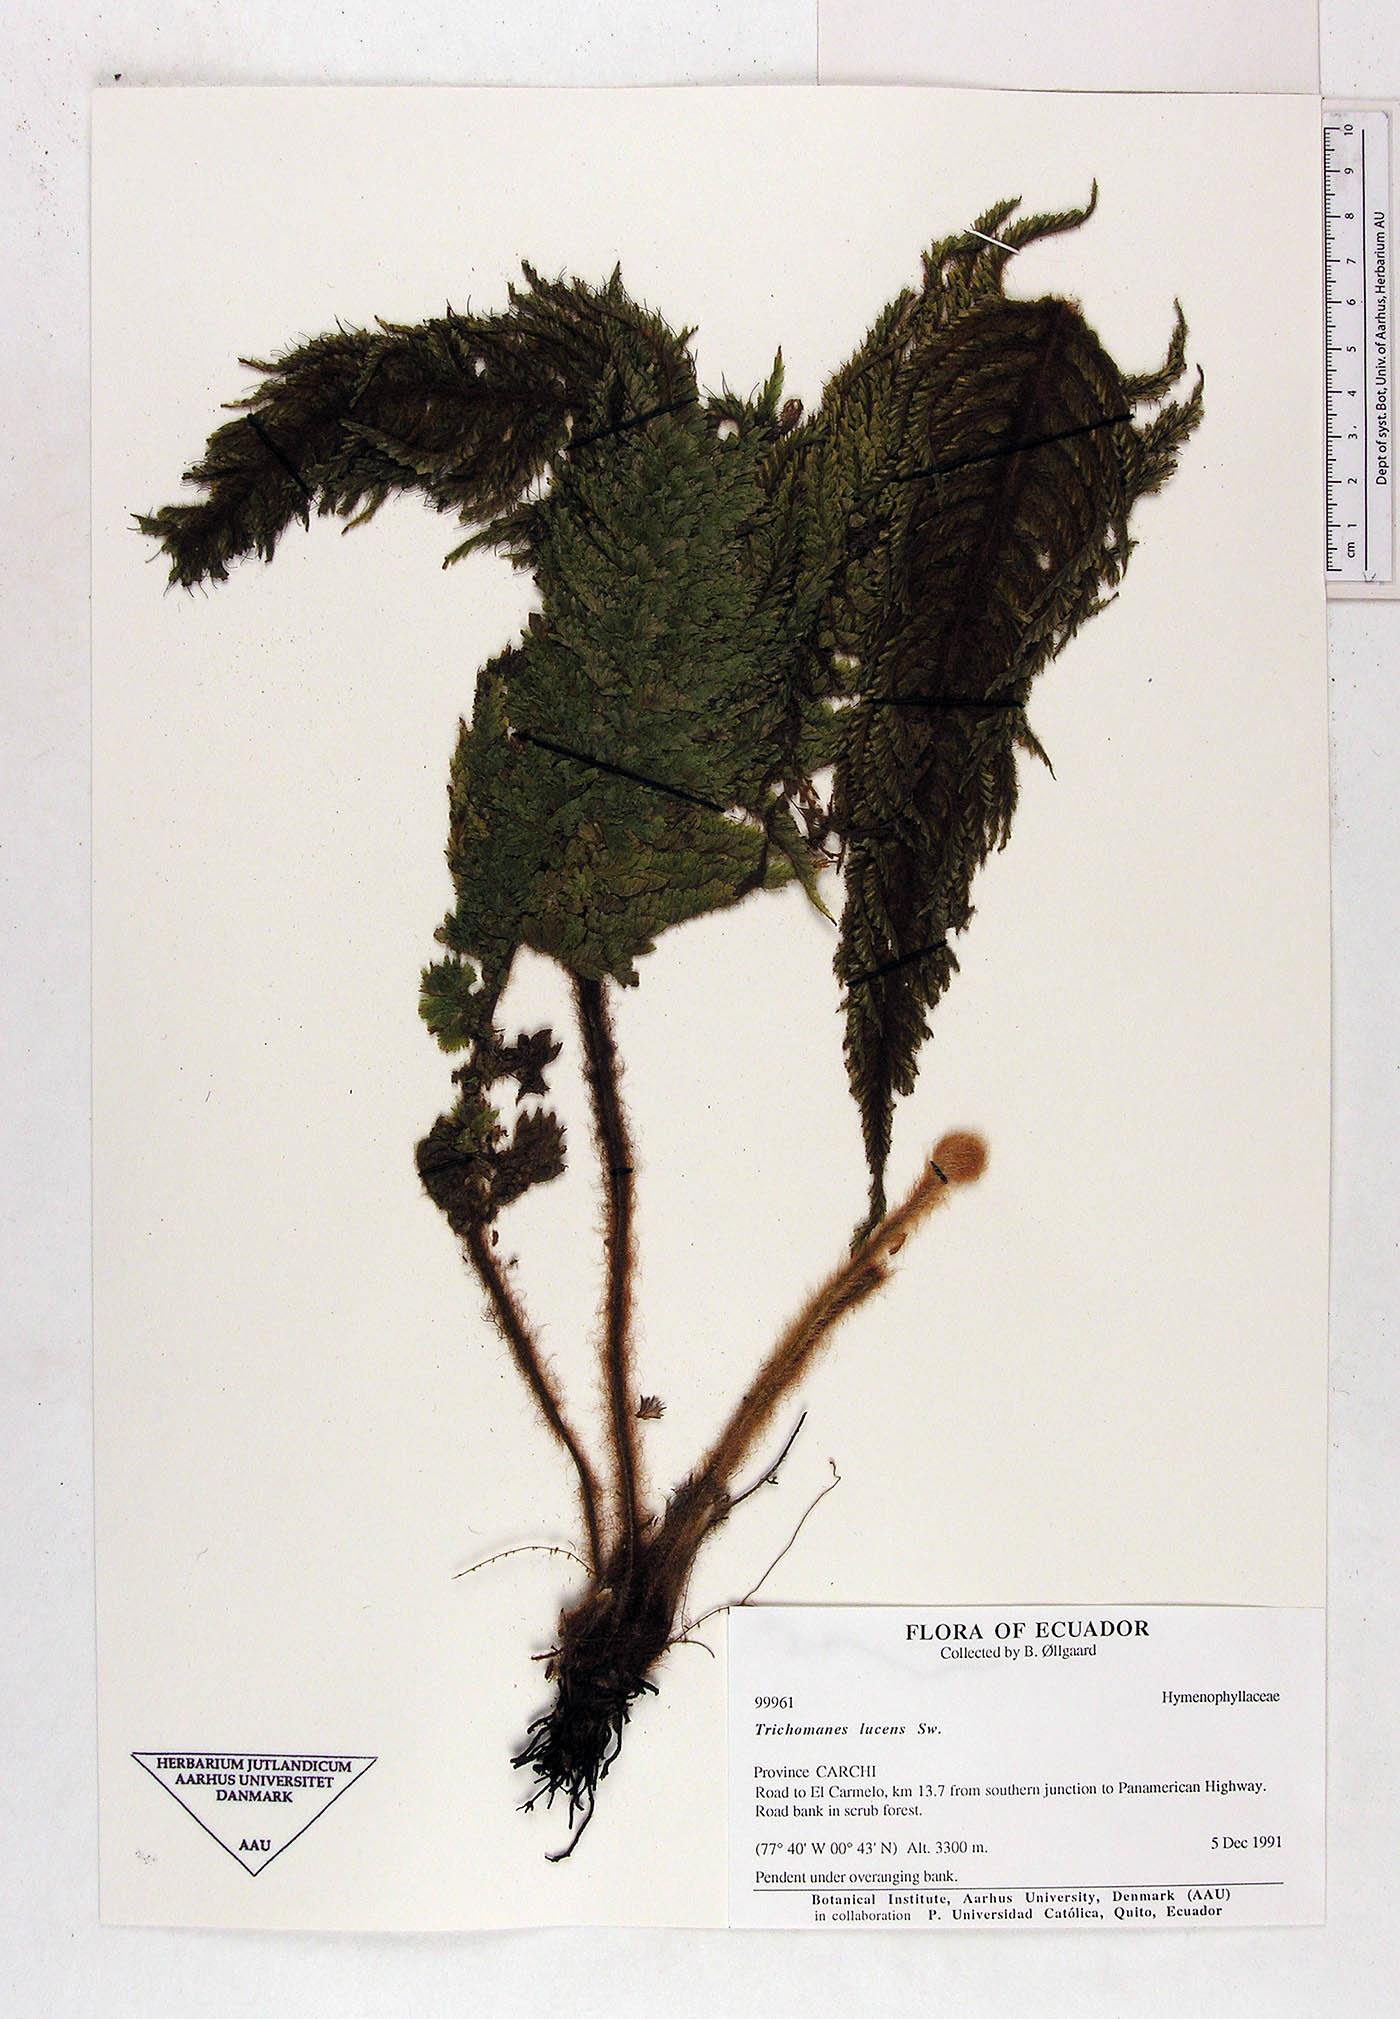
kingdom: Plantae
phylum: Tracheophyta
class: Polypodiopsida
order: Hymenophyllales
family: Hymenophyllaceae
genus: Trichomanes
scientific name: Trichomanes lucens
